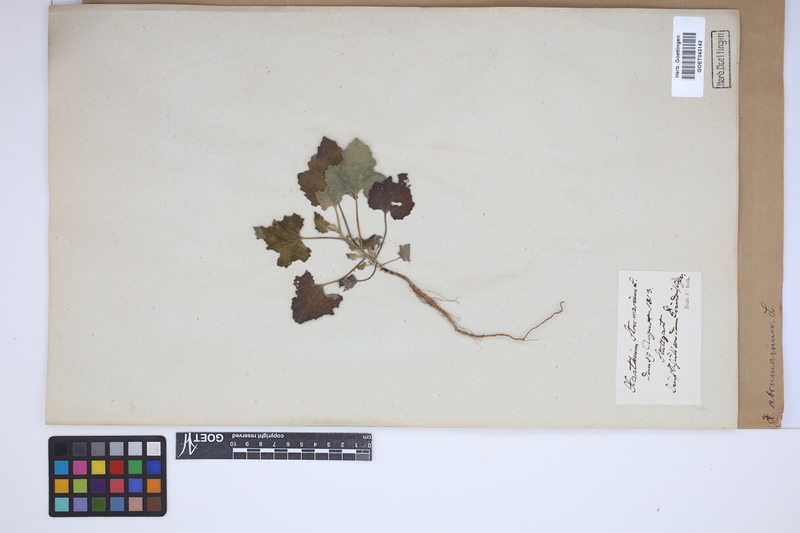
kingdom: Plantae
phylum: Tracheophyta
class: Magnoliopsida
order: Asterales
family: Asteraceae
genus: Xanthium
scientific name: Xanthium strumarium
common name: Rough cocklebur
